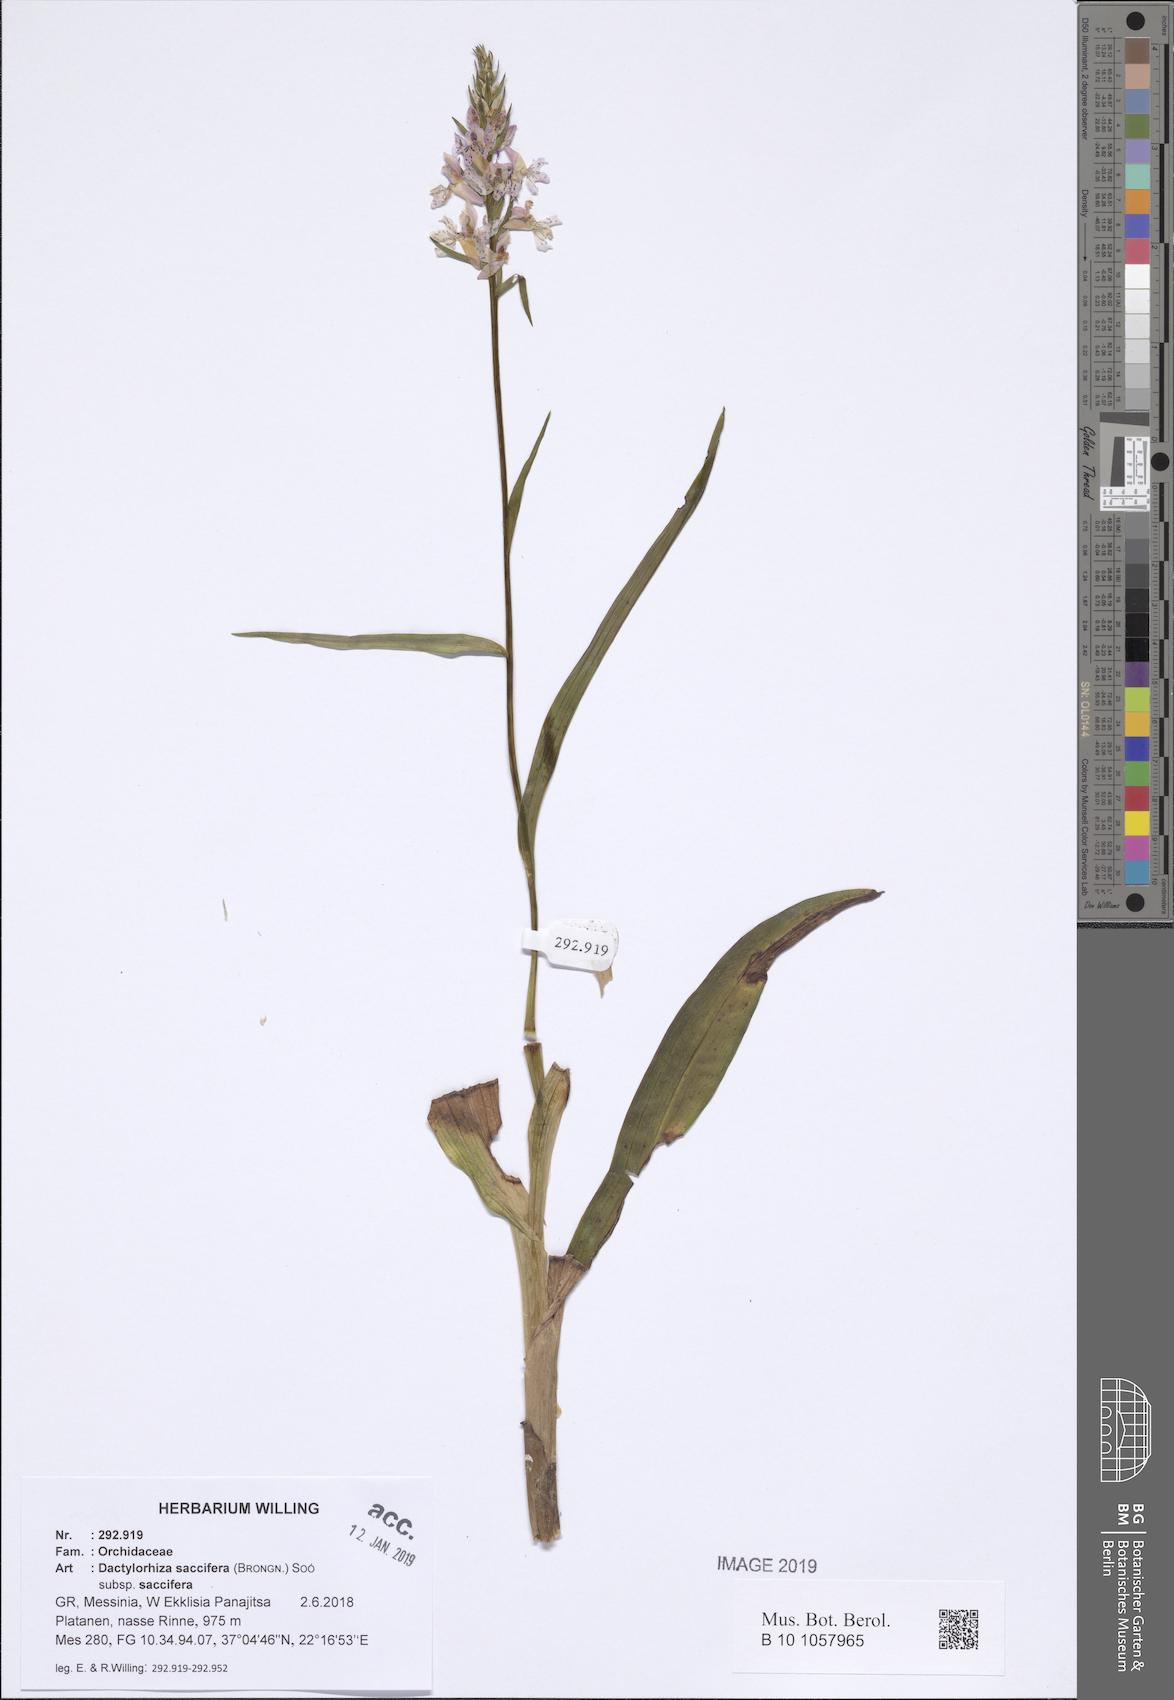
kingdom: Plantae
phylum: Tracheophyta
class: Liliopsida
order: Asparagales
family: Orchidaceae
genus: Dactylorhiza
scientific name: Dactylorhiza maculata
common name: Heath spotted-orchid
